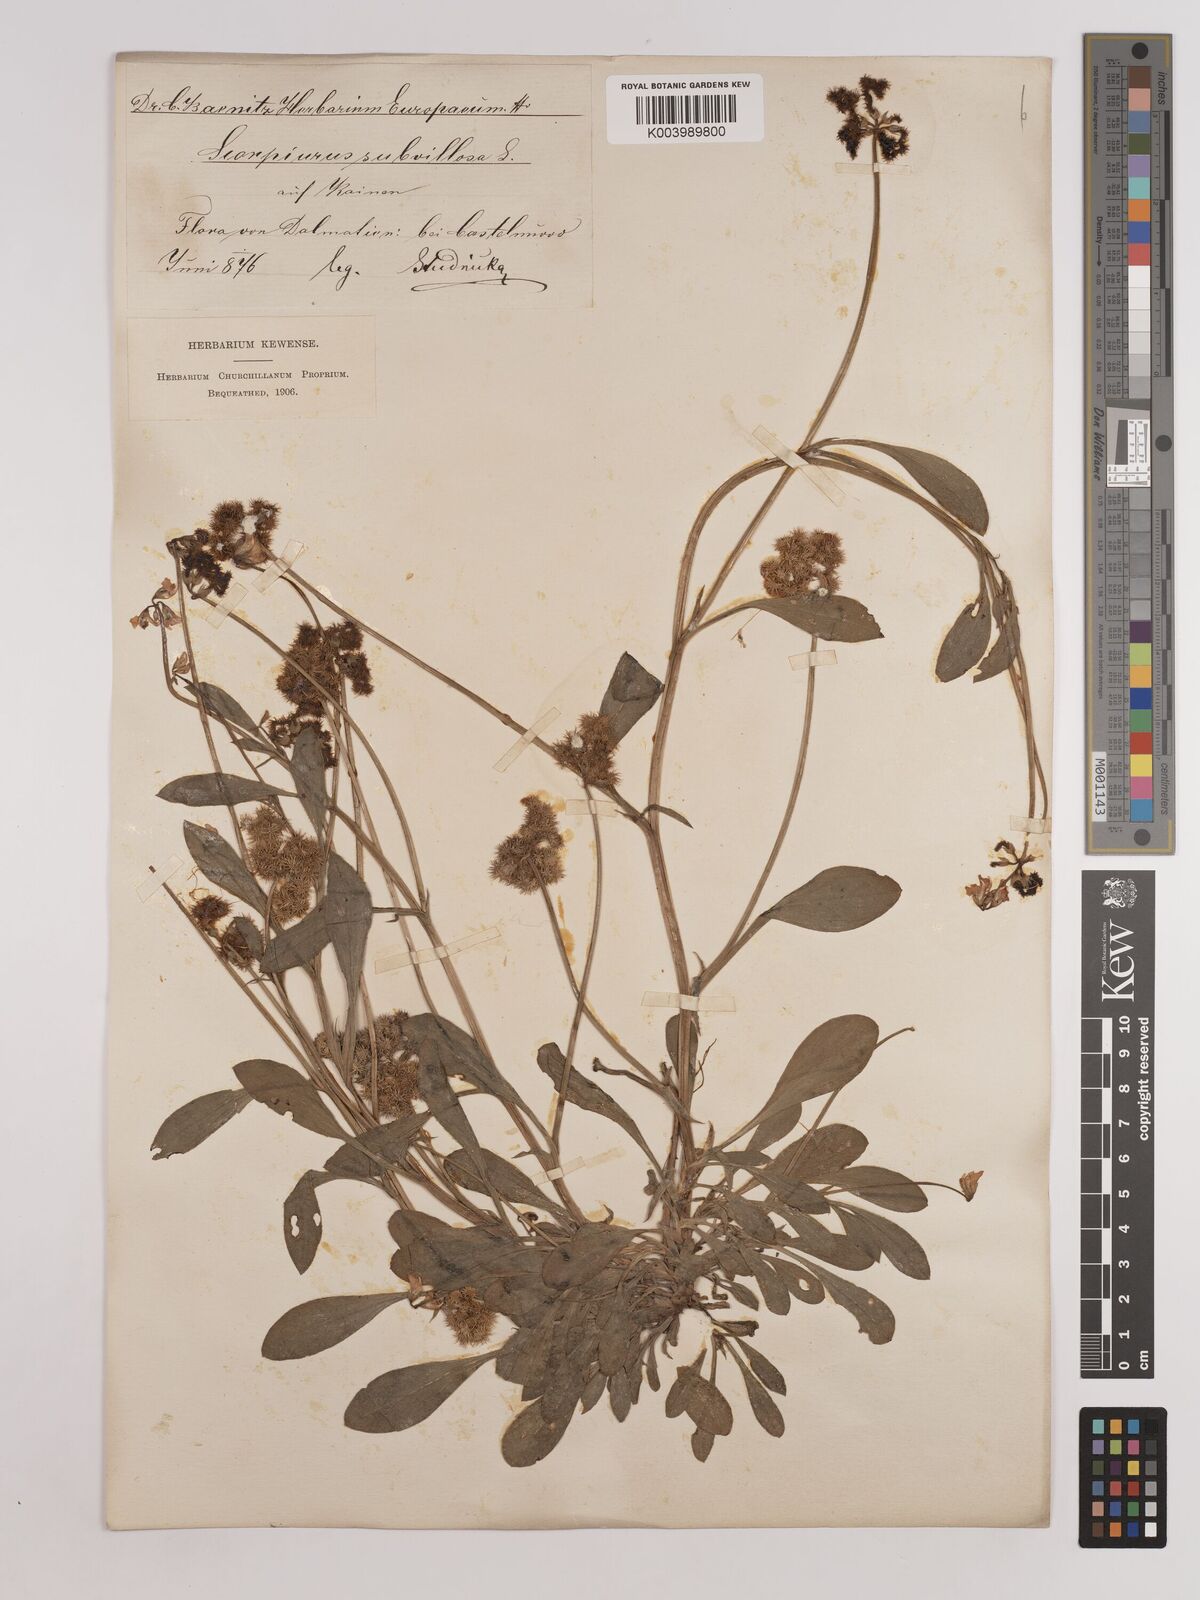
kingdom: Plantae
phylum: Tracheophyta
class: Magnoliopsida
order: Fabales
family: Fabaceae
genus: Scorpiurus
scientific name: Scorpiurus muricatus
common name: Caterpillar-plant
